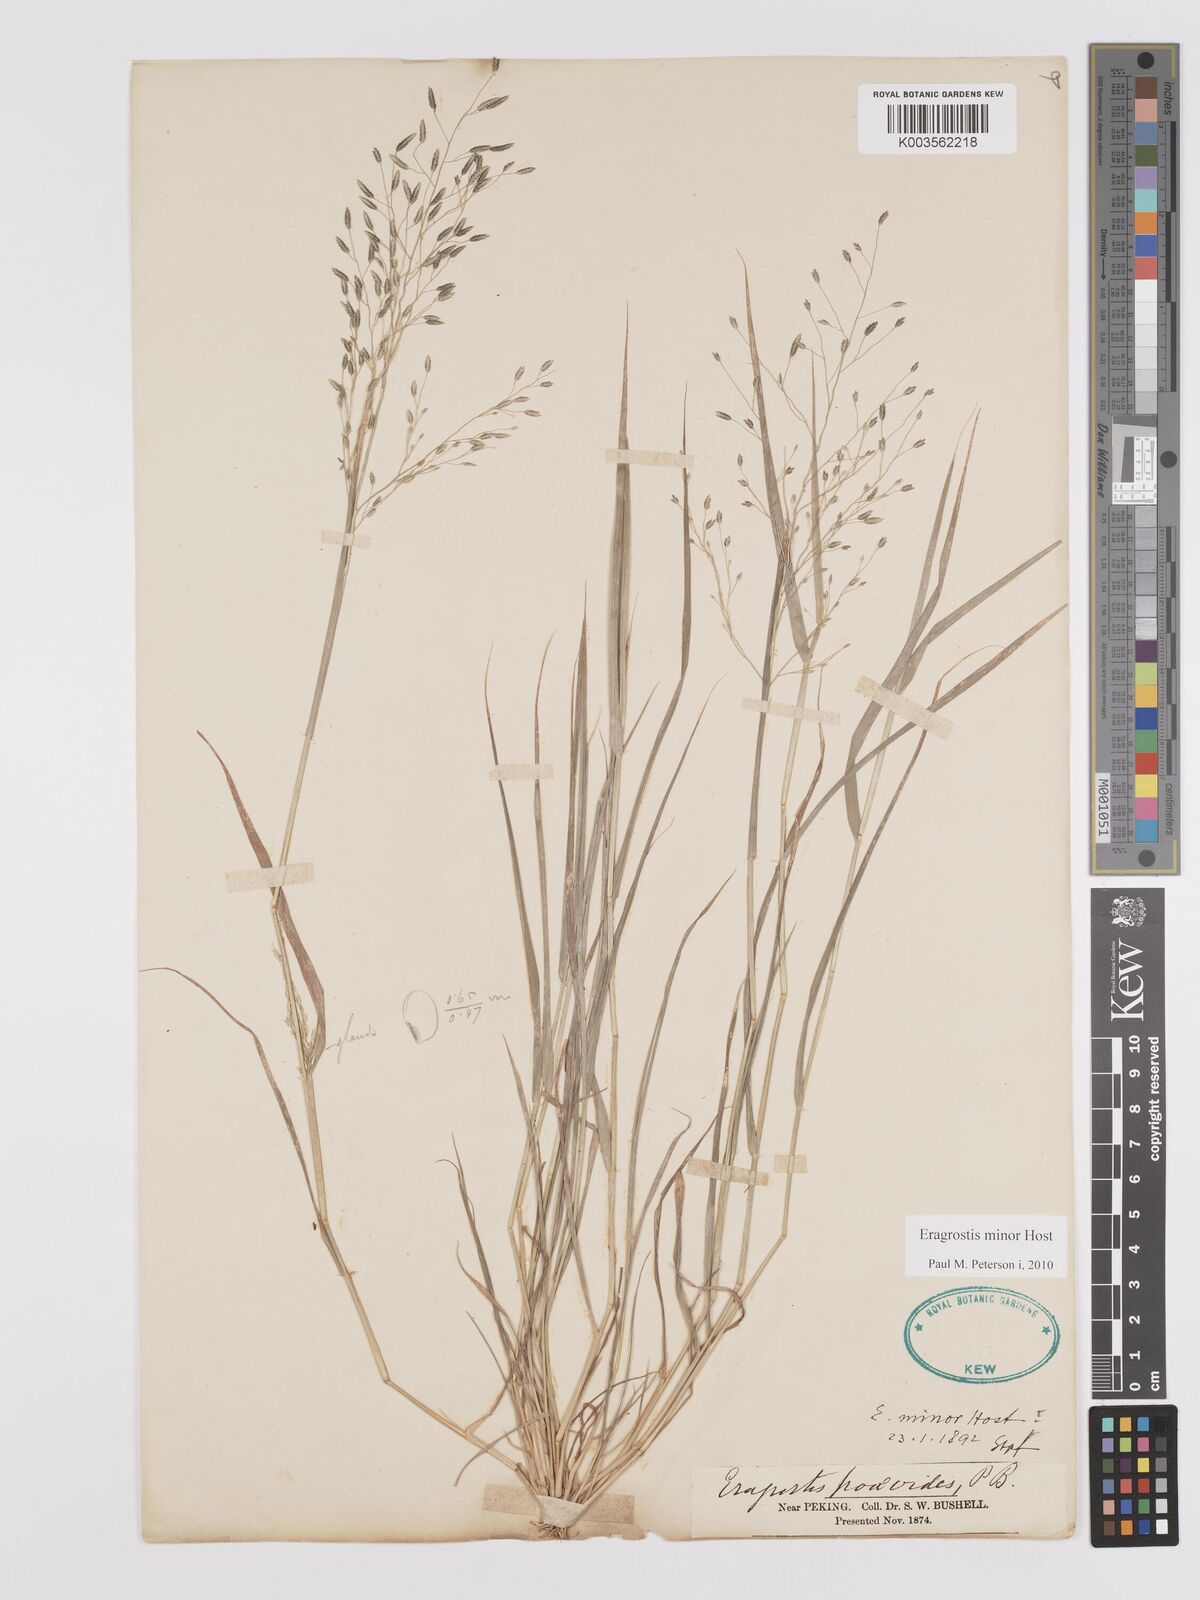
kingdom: Plantae
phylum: Tracheophyta
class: Liliopsida
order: Poales
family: Poaceae
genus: Eragrostis
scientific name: Eragrostis minor
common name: Small love-grass
